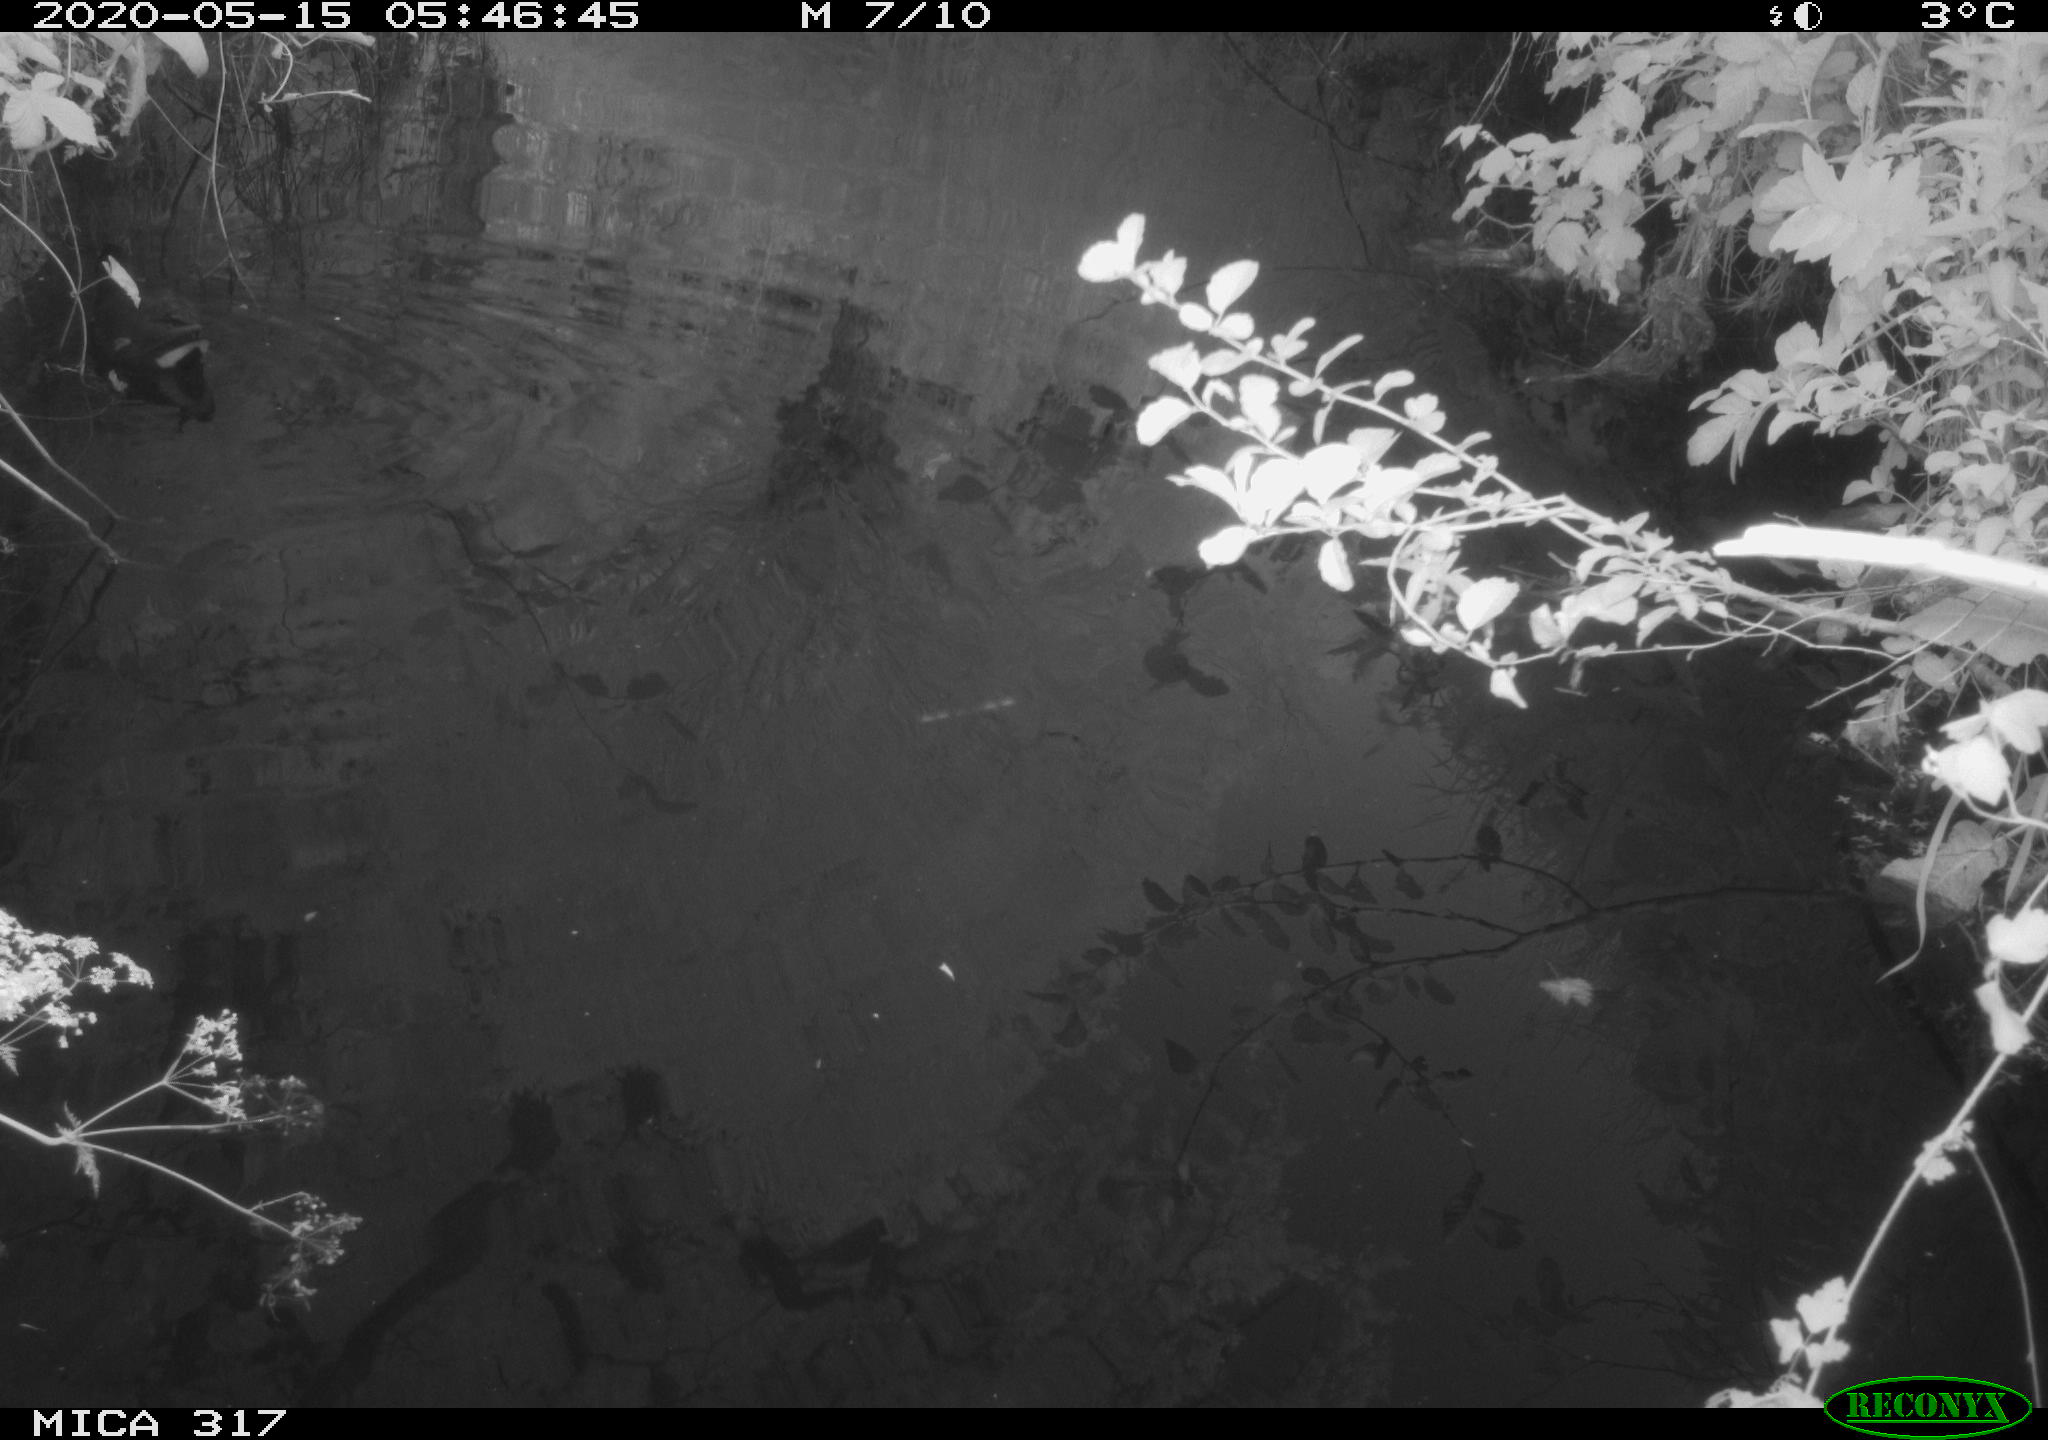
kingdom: Animalia
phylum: Chordata
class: Aves
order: Gruiformes
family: Rallidae
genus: Gallinula
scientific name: Gallinula chloropus
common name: Common moorhen
